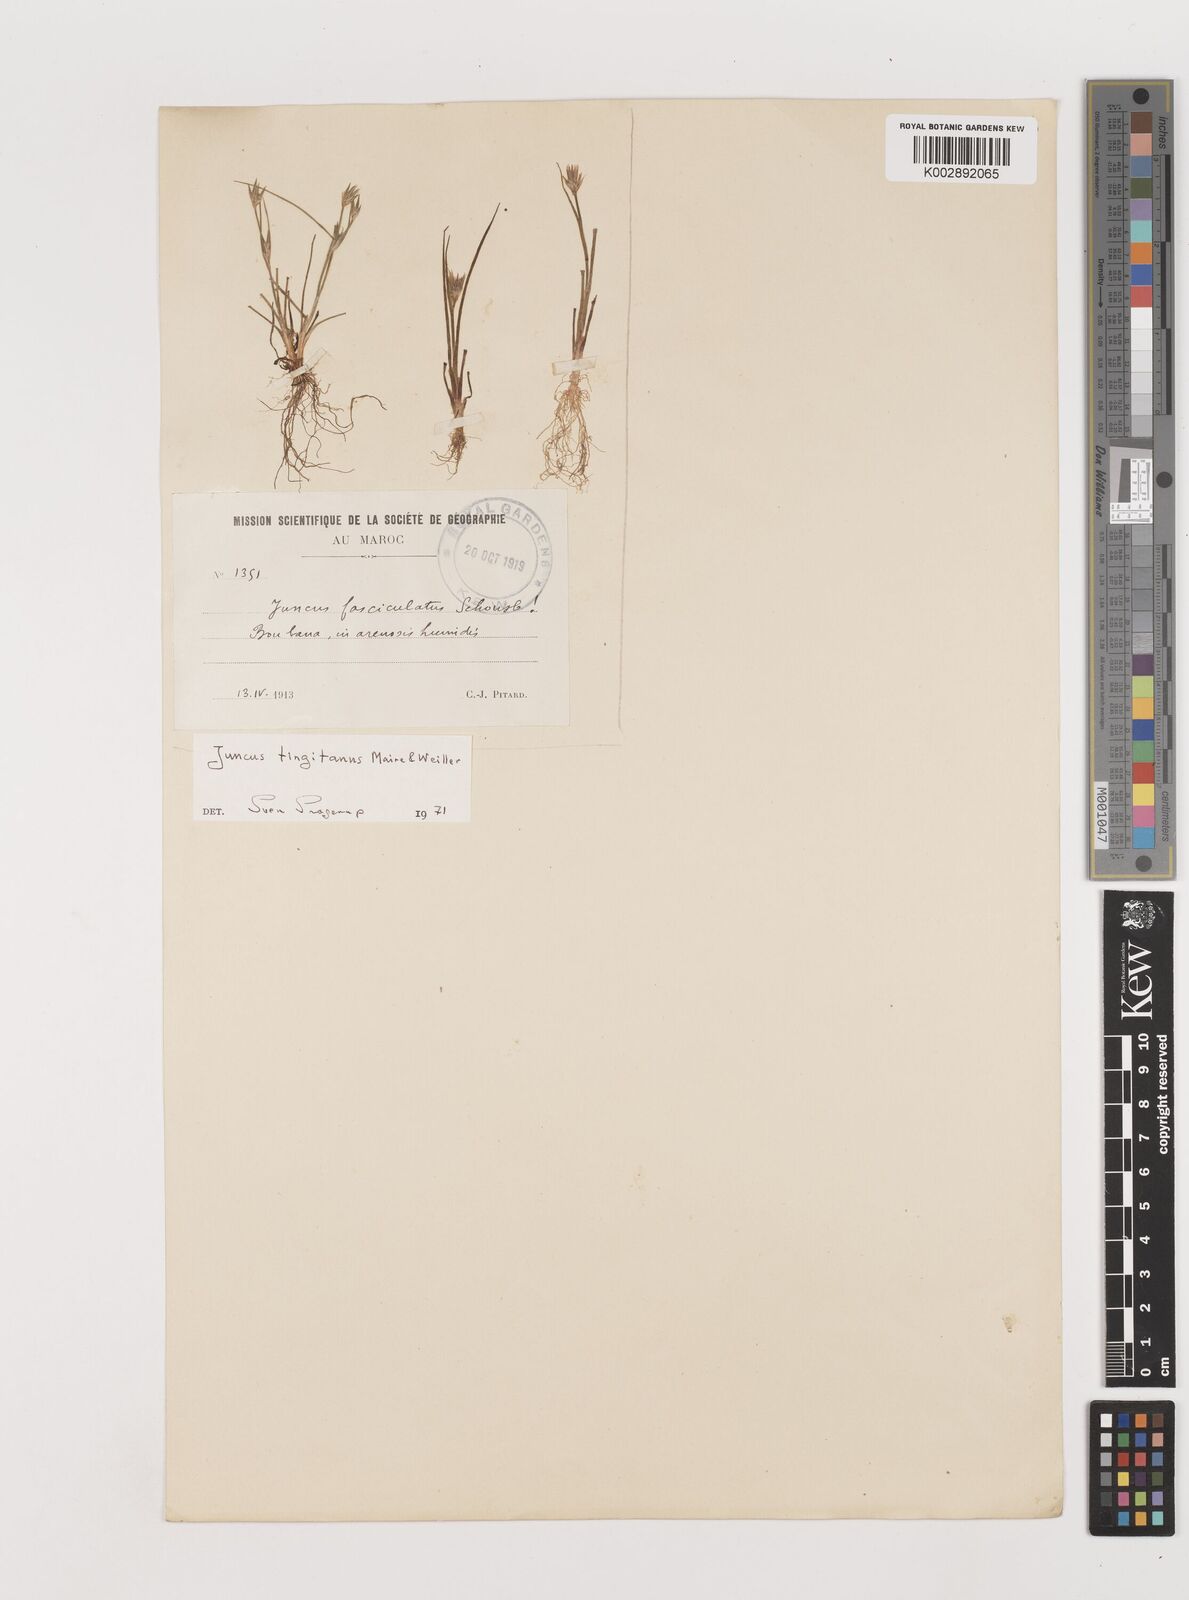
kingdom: Plantae
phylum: Tracheophyta
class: Liliopsida
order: Poales
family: Juncaceae
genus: Juncus
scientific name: Juncus tingitanus
